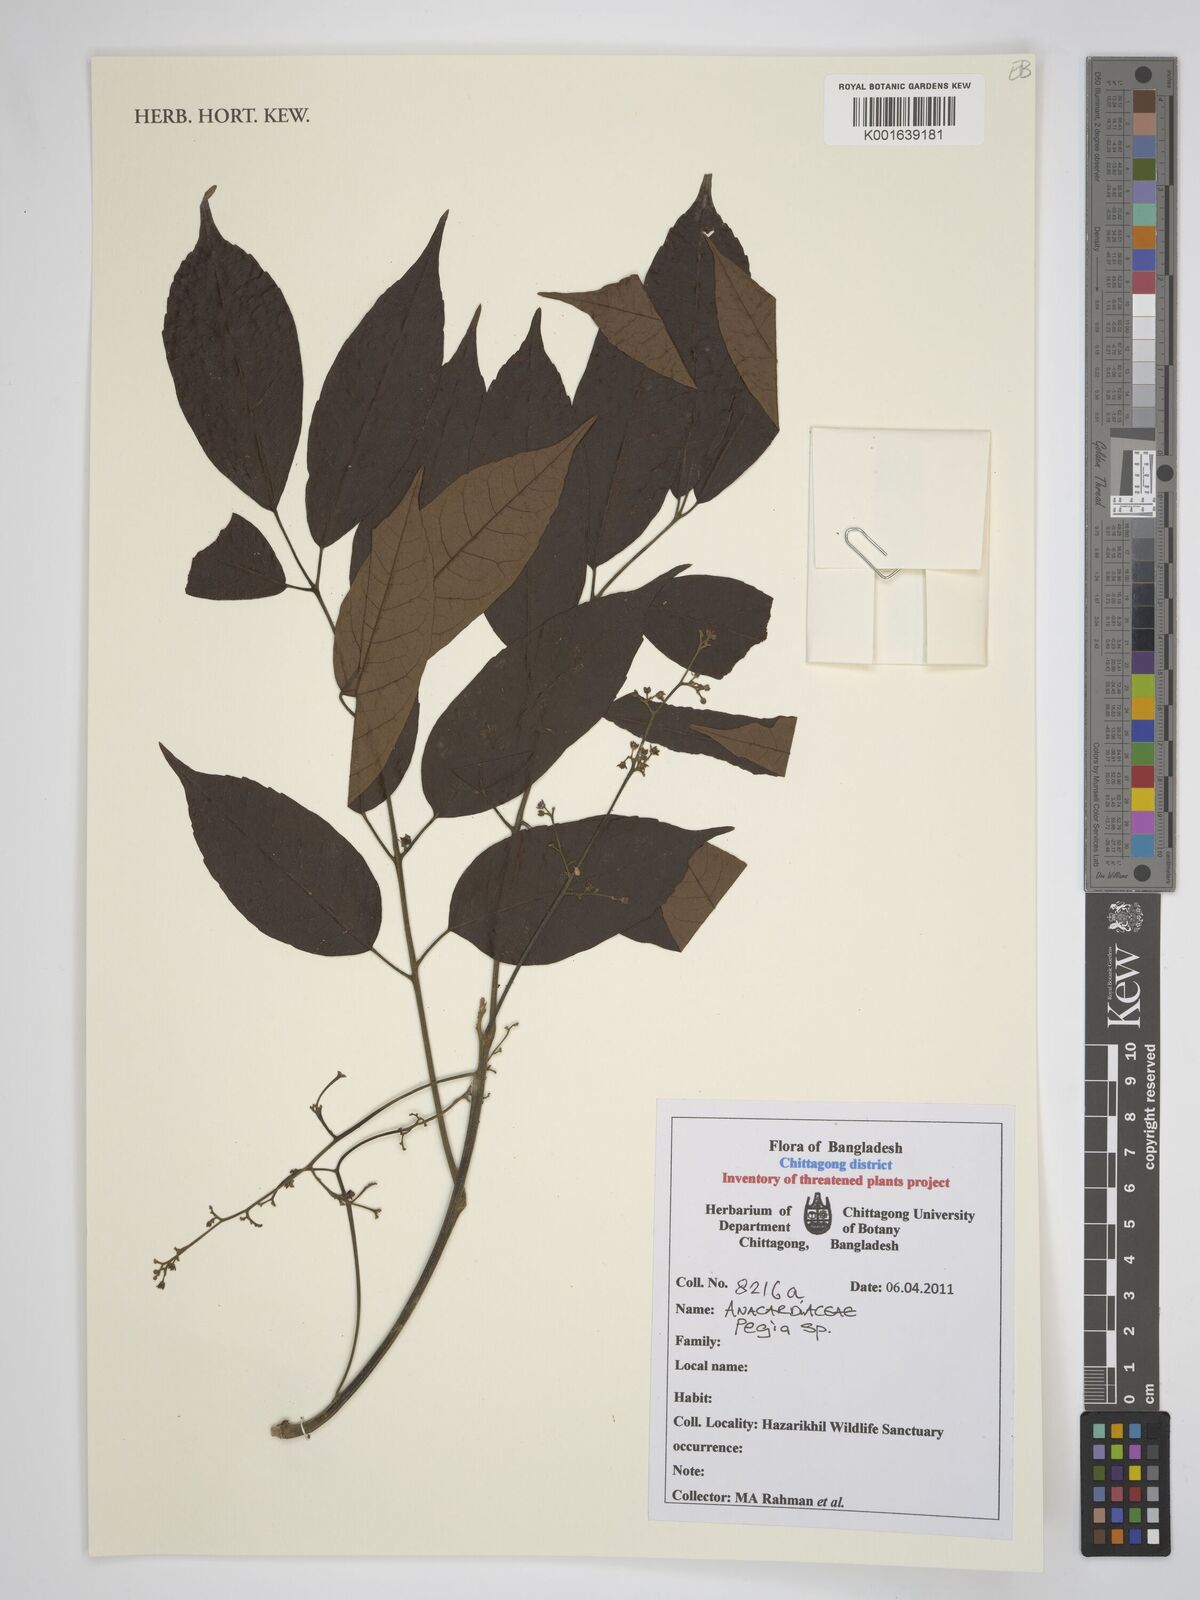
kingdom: Plantae
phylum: Tracheophyta
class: Magnoliopsida
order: Sapindales
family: Anacardiaceae
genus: Pegia
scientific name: Pegia
